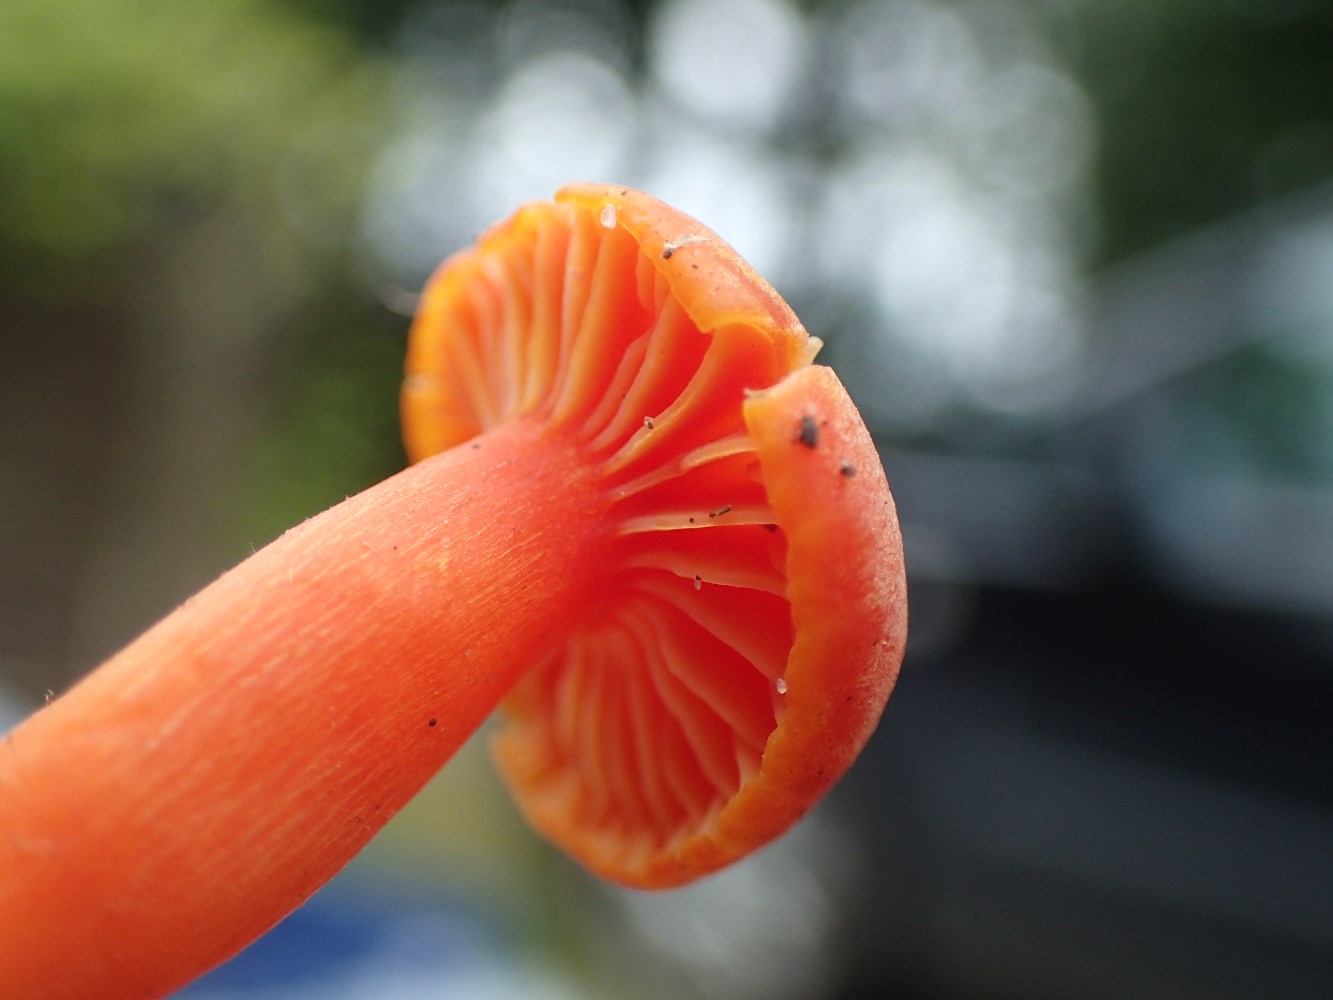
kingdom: Fungi
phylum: Basidiomycota
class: Agaricomycetes
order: Agaricales
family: Hygrophoraceae
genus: Hygrocybe
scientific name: Hygrocybe reidii
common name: honning-vokshat
